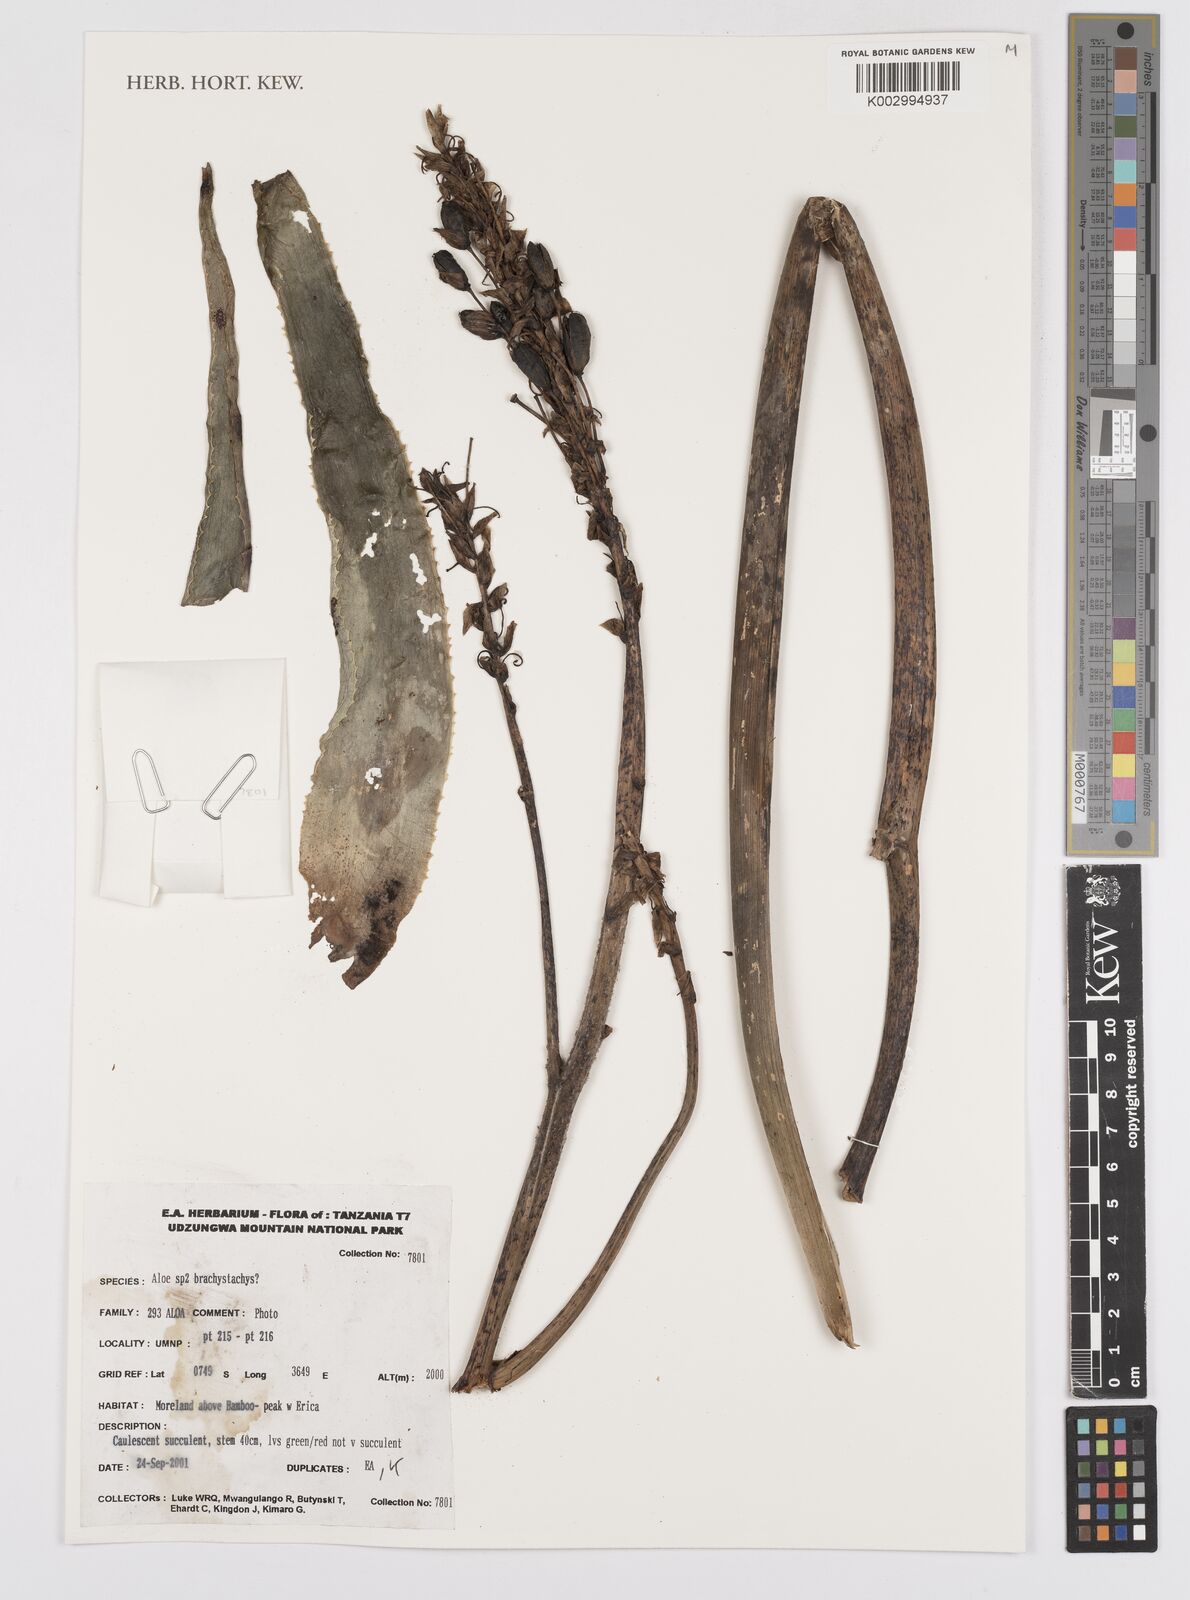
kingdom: Plantae
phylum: Tracheophyta
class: Liliopsida
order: Asparagales
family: Asphodelaceae
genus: Aloe
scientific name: Aloe
